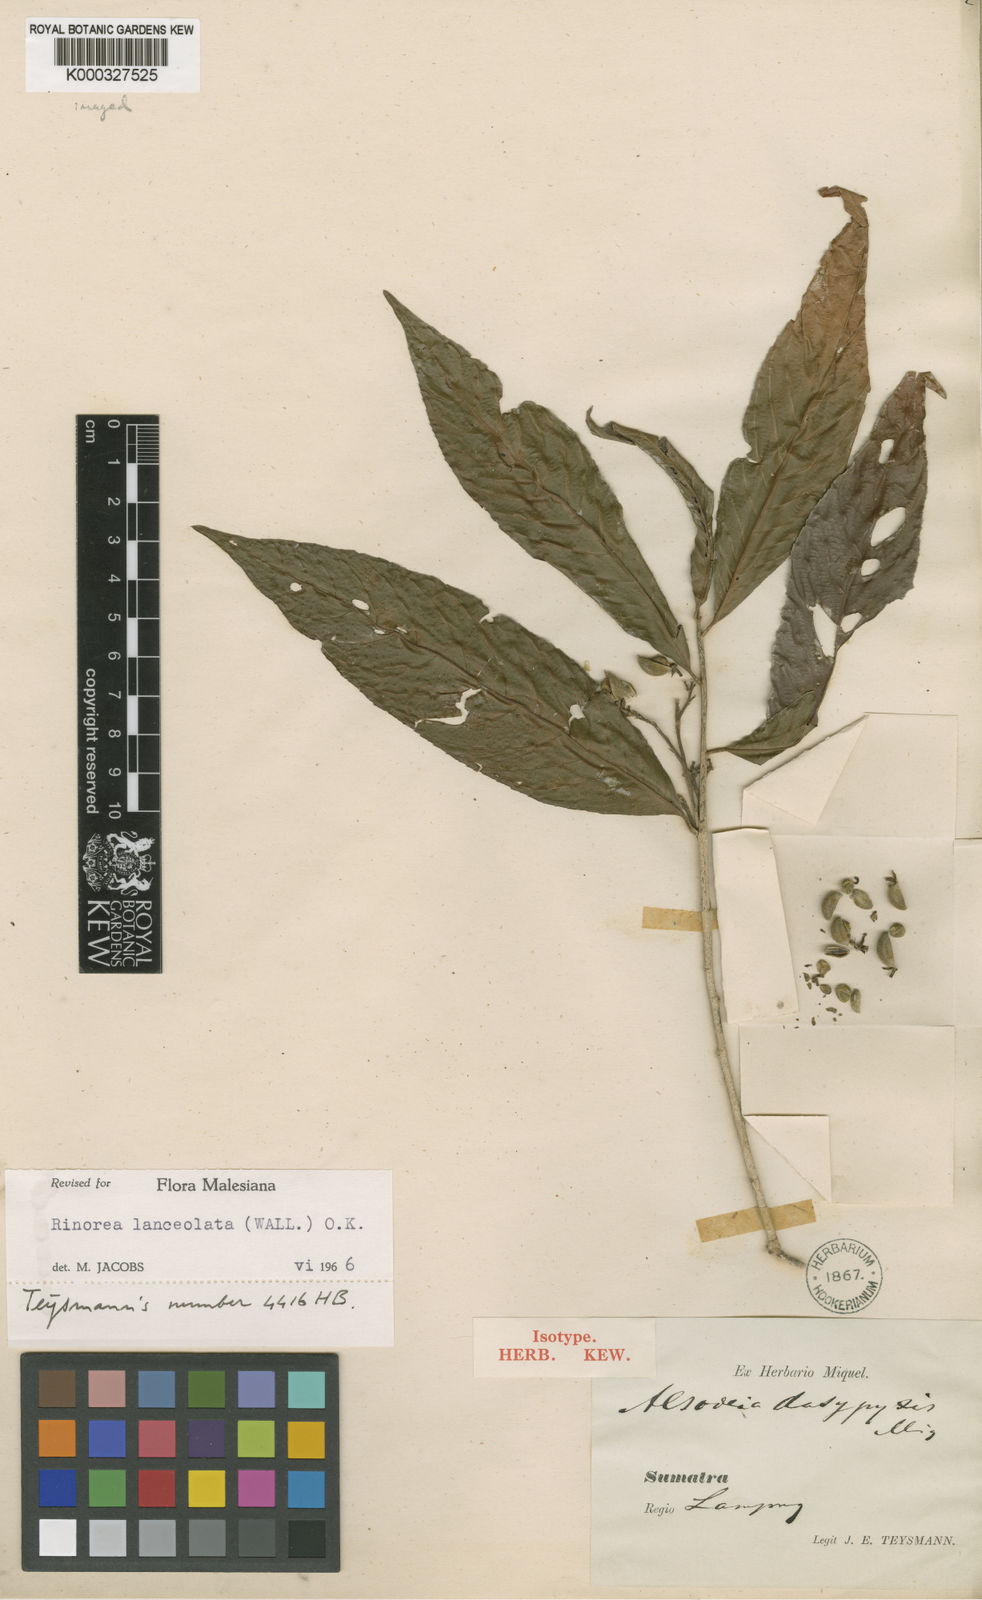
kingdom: Plantae
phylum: Tracheophyta
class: Magnoliopsida
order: Malpighiales
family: Violaceae
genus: Rinorea
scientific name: Rinorea lanceolata
